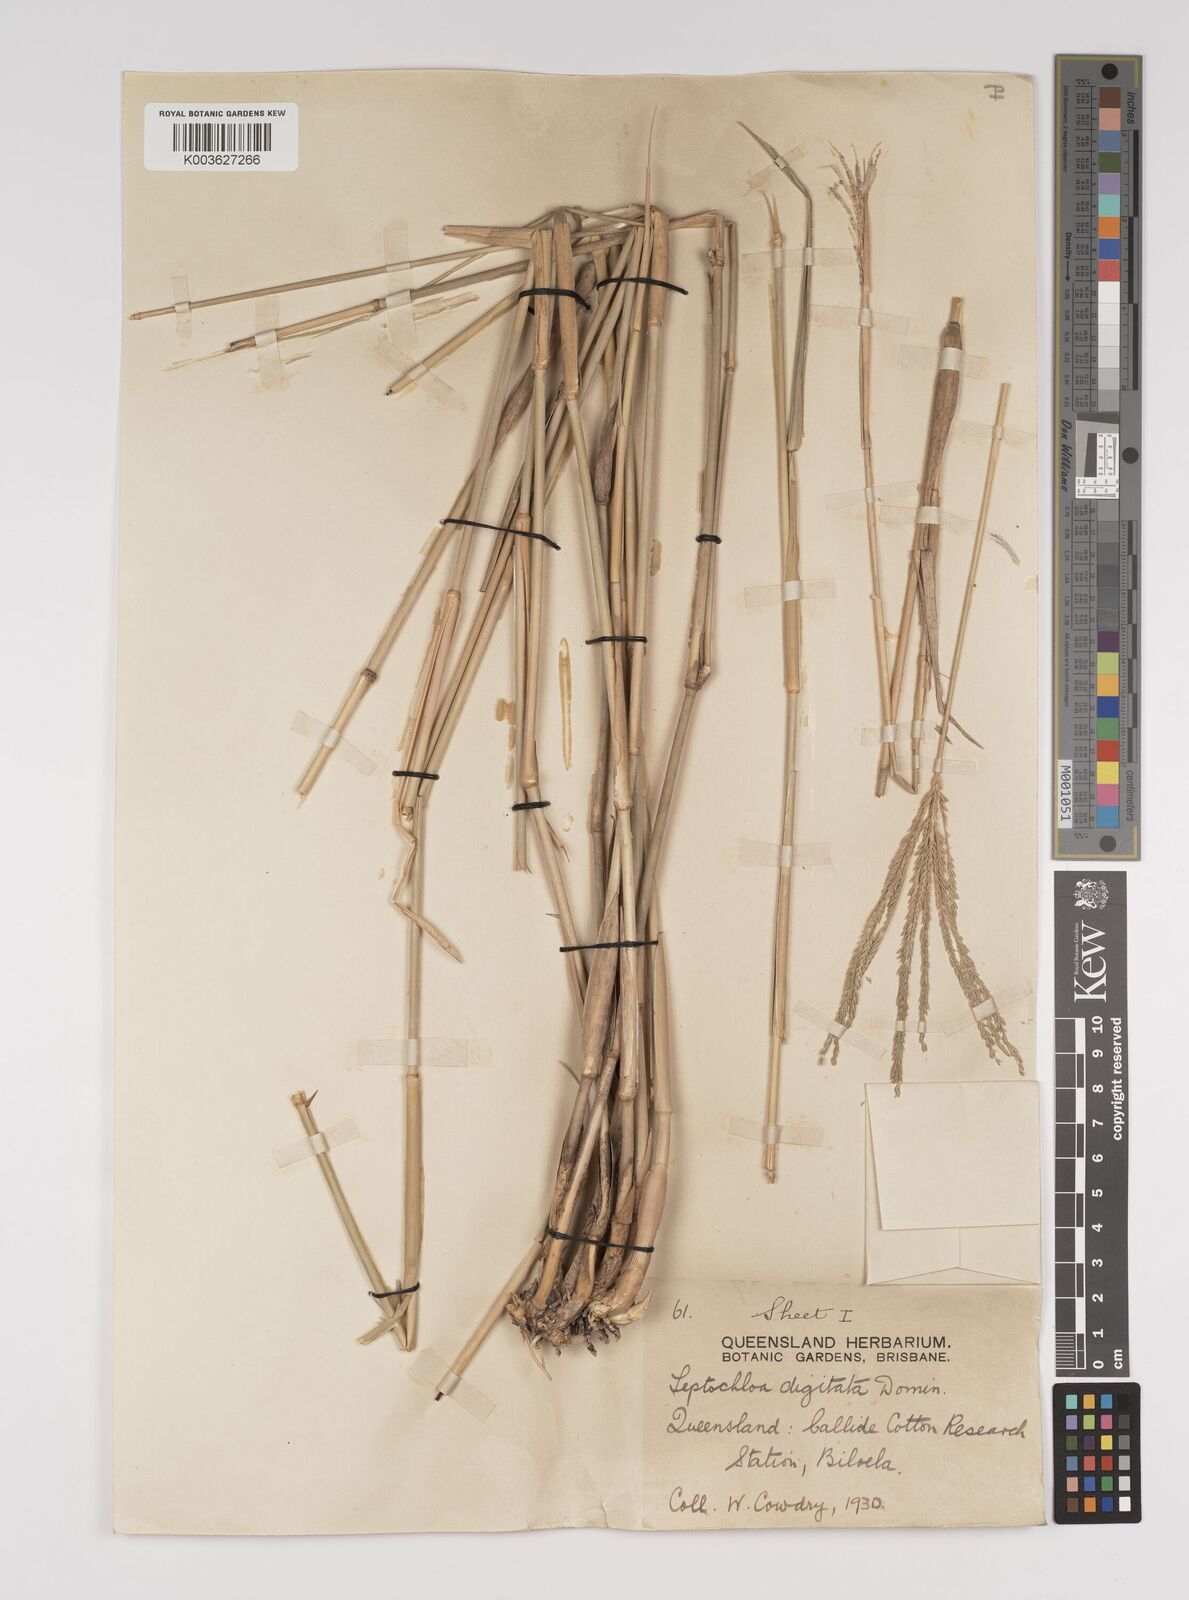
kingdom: Plantae
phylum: Tracheophyta
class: Liliopsida
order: Poales
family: Poaceae
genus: Leptochloa
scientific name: Leptochloa digitata
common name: Finger sprangletop
